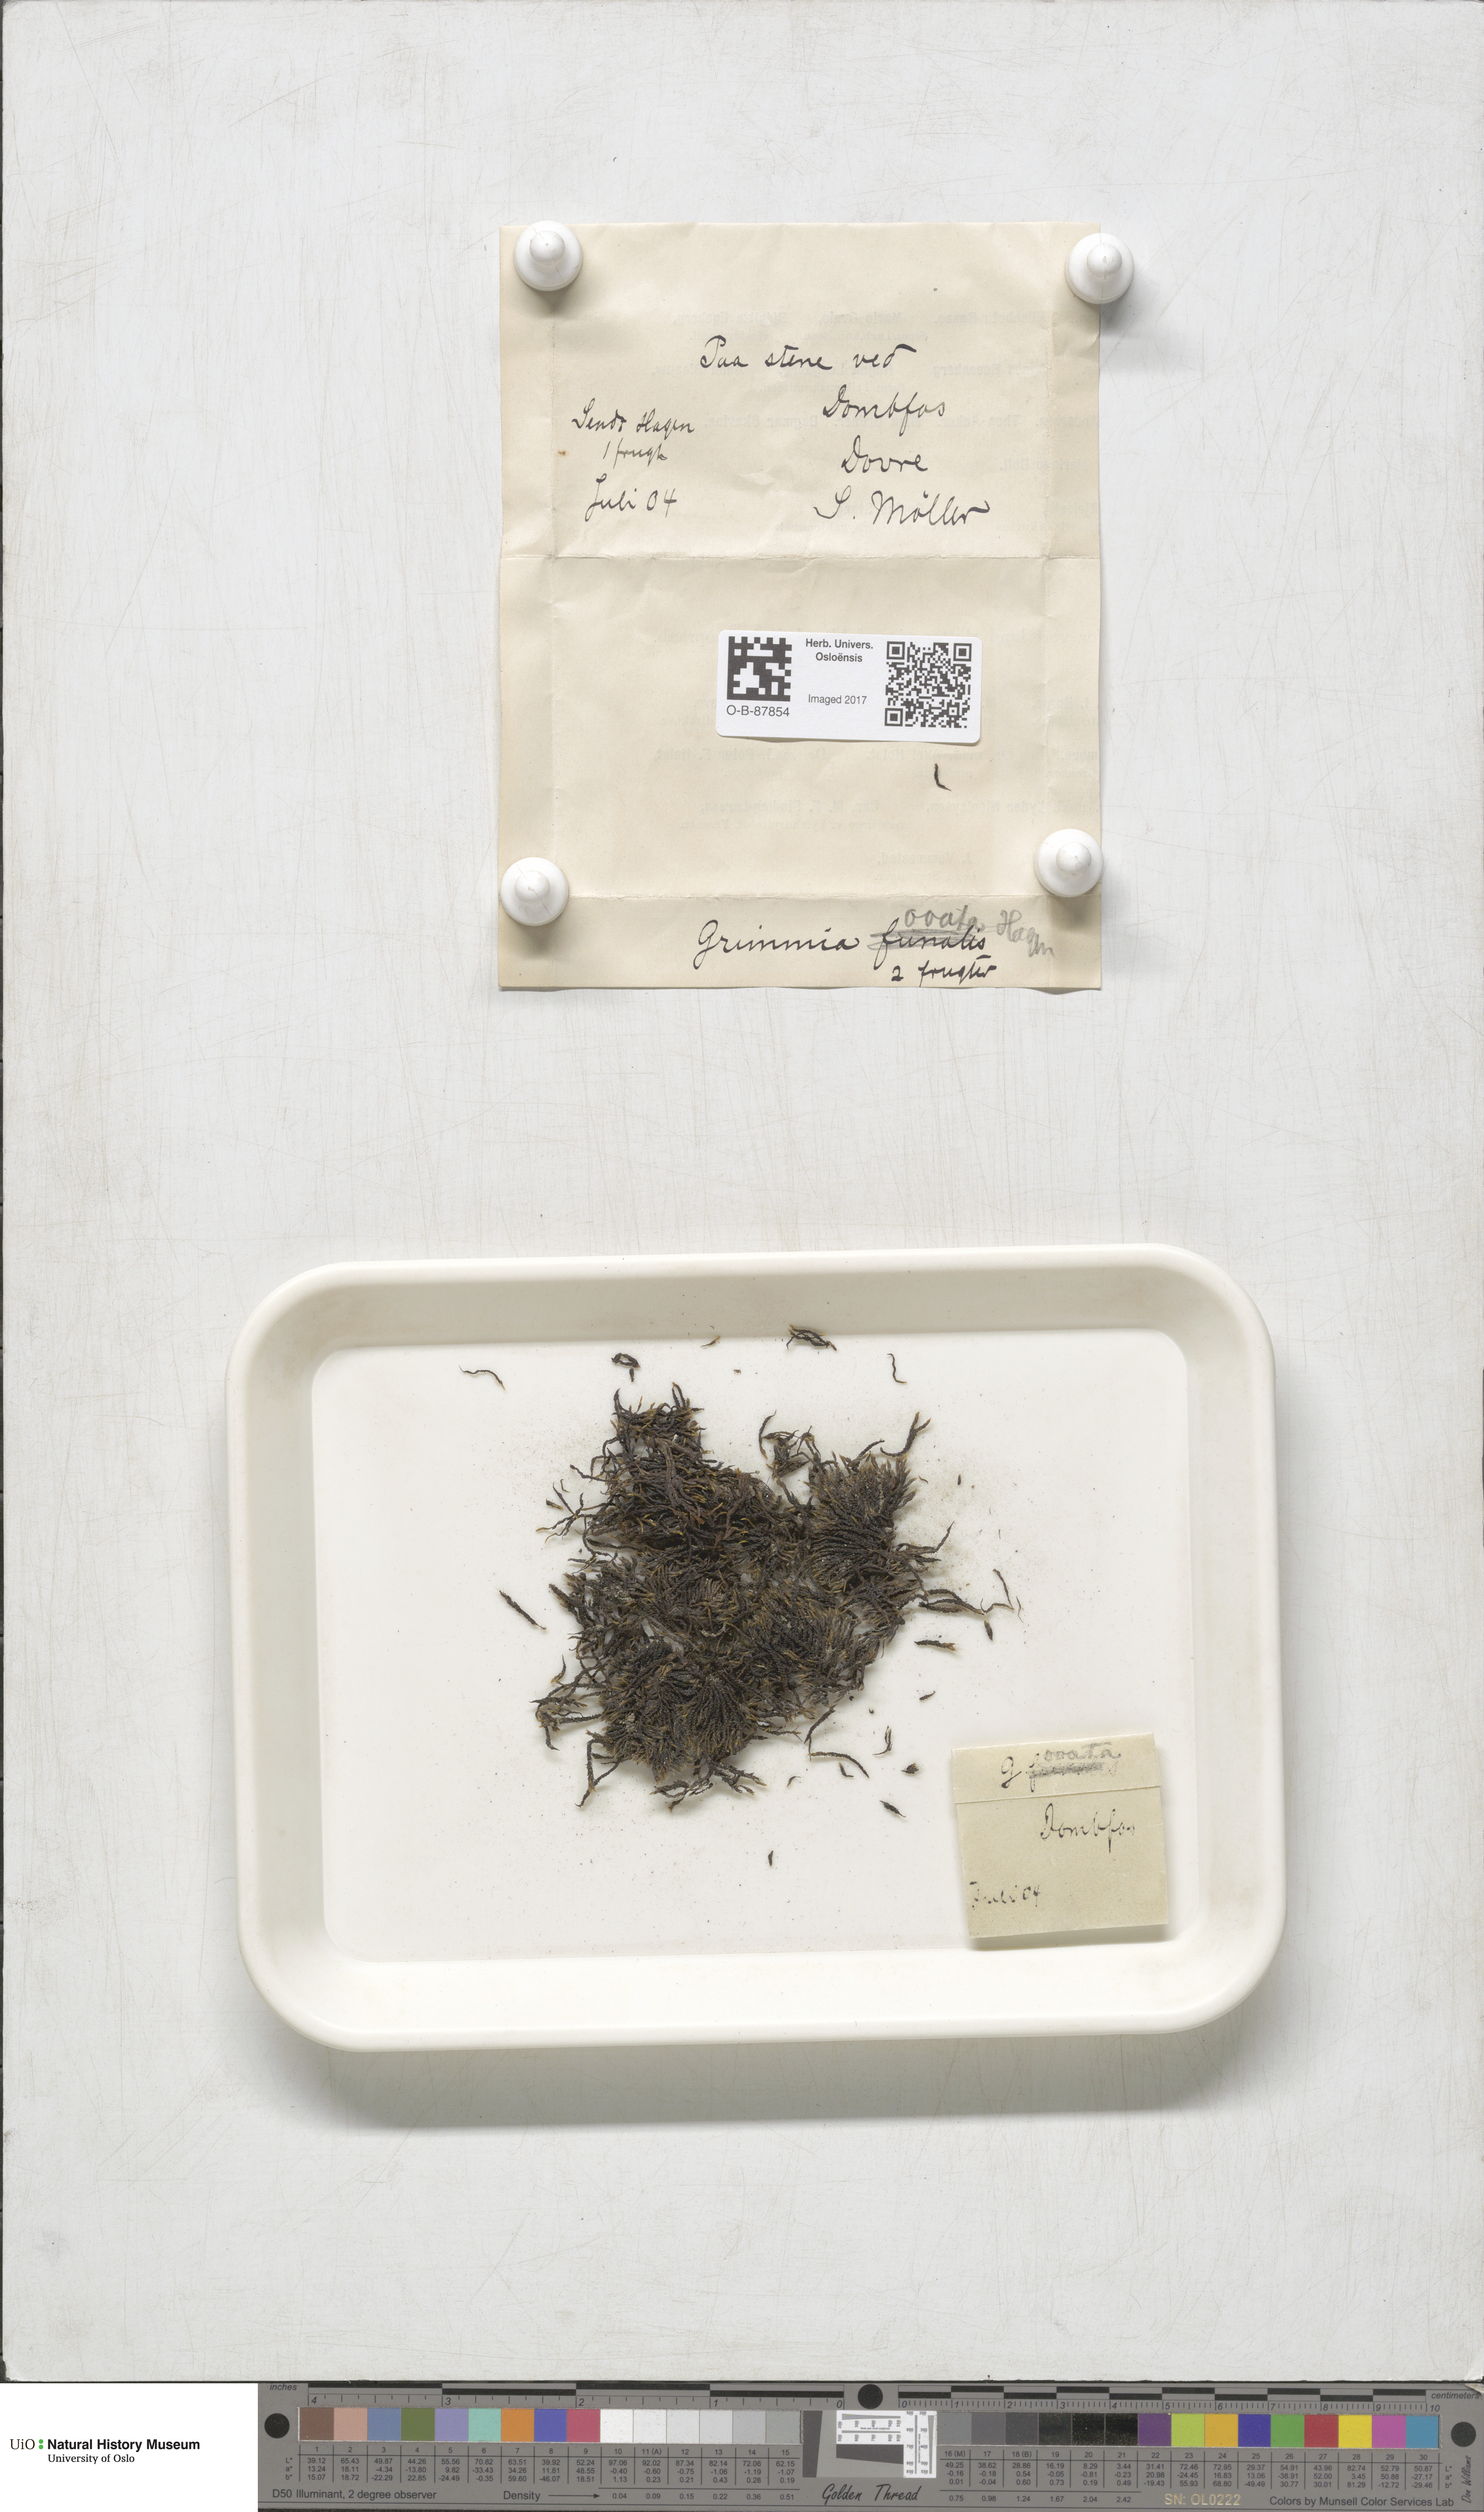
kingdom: Plantae
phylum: Bryophyta
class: Bryopsida
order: Grimmiales
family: Grimmiaceae
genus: Grimmia
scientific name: Grimmia ovalis
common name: Oval grimmia
